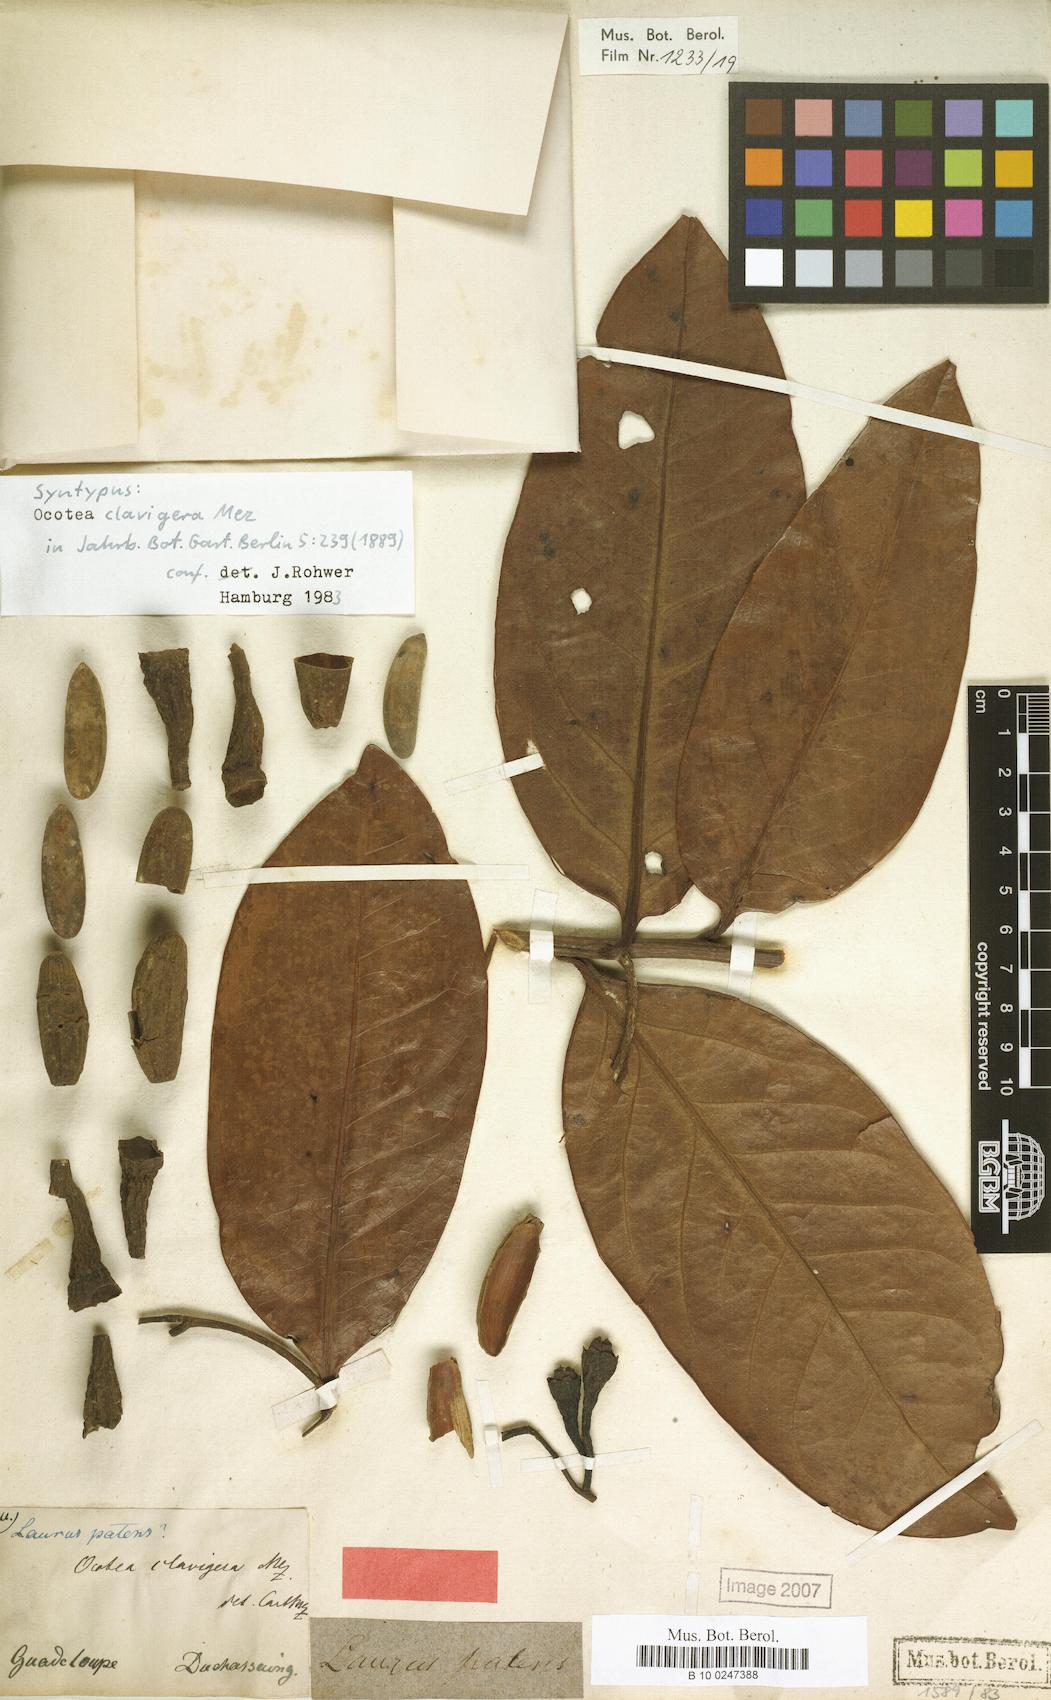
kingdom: Plantae
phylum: Tracheophyta
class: Magnoliopsida
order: Laurales
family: Lauraceae
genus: Ocotea
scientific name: Ocotea clavigera
